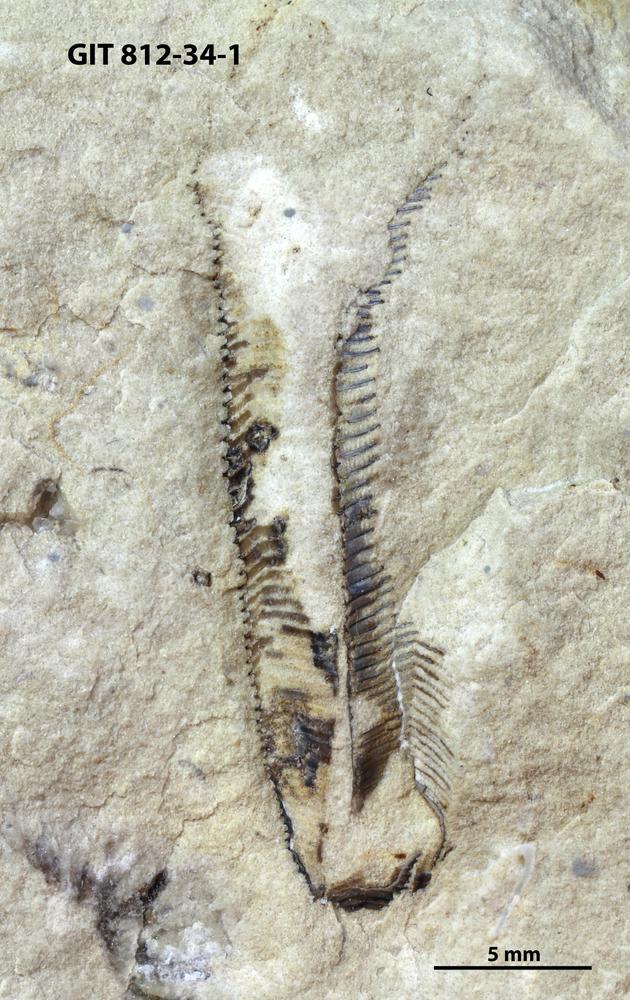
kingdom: Animalia
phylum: Cnidaria
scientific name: Cnidaria
